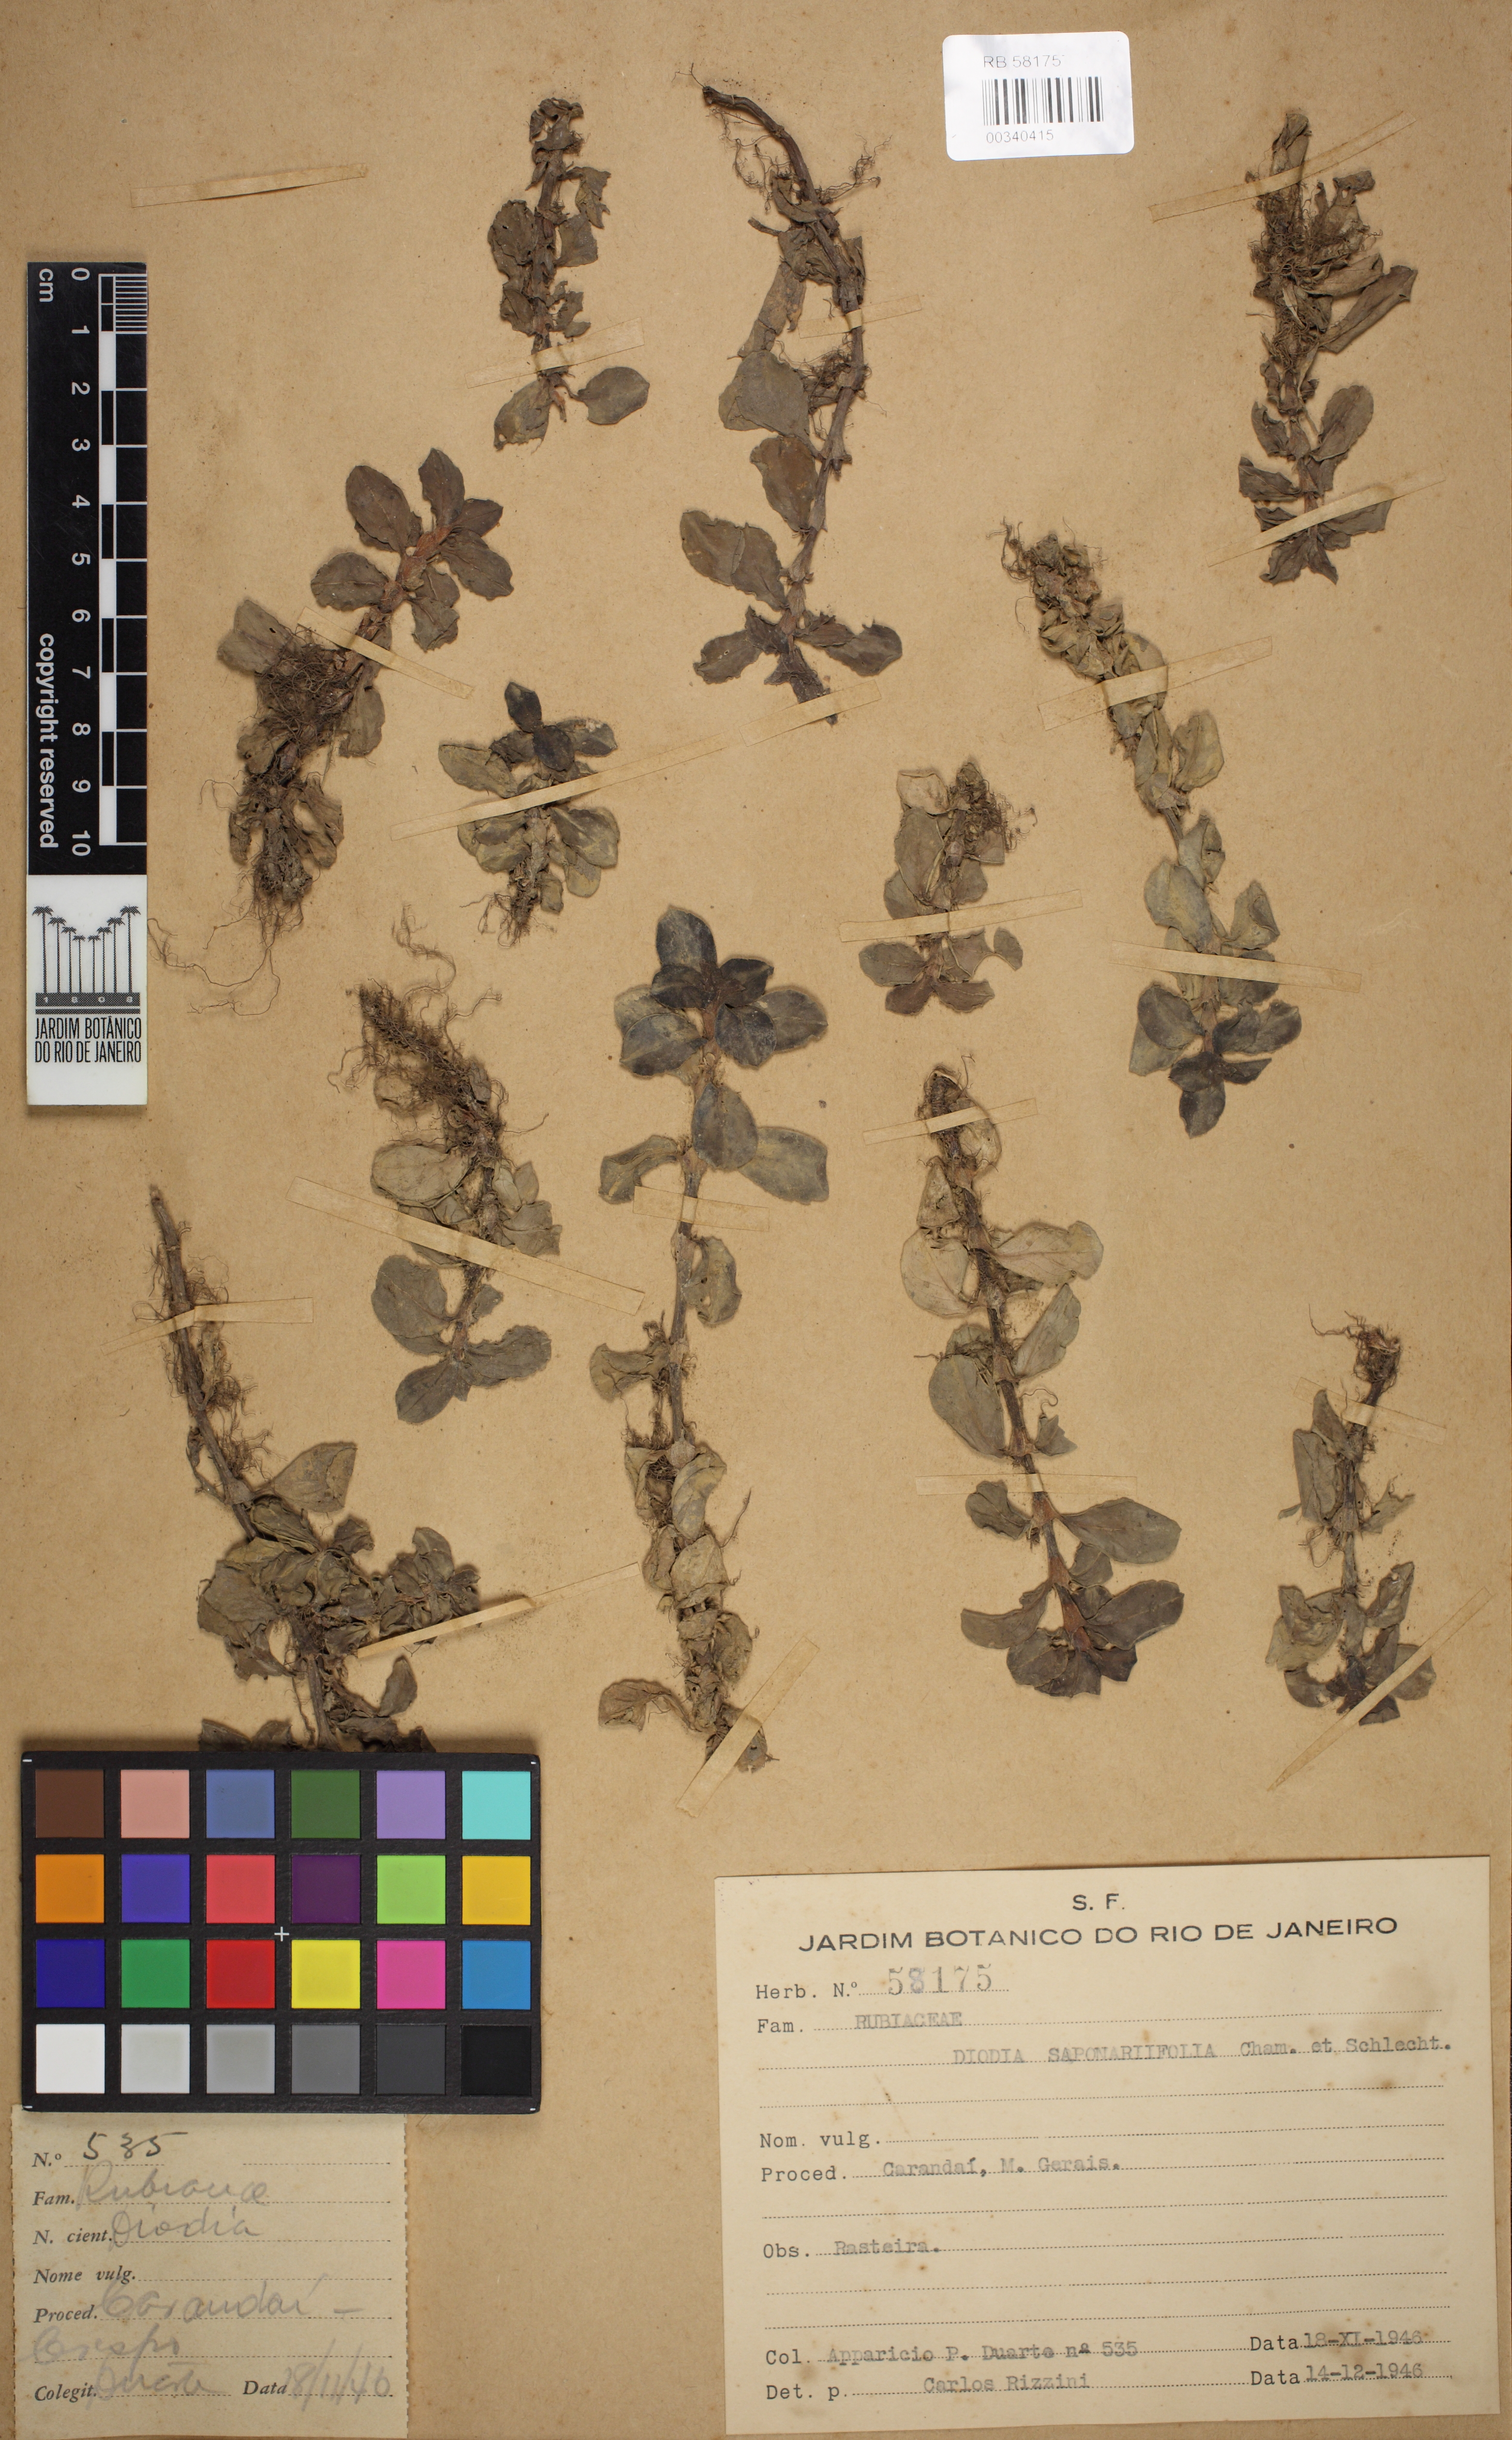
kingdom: Plantae
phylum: Tracheophyta
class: Magnoliopsida
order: Gentianales
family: Rubiaceae
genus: Diodia
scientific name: Diodia saponariifolia
